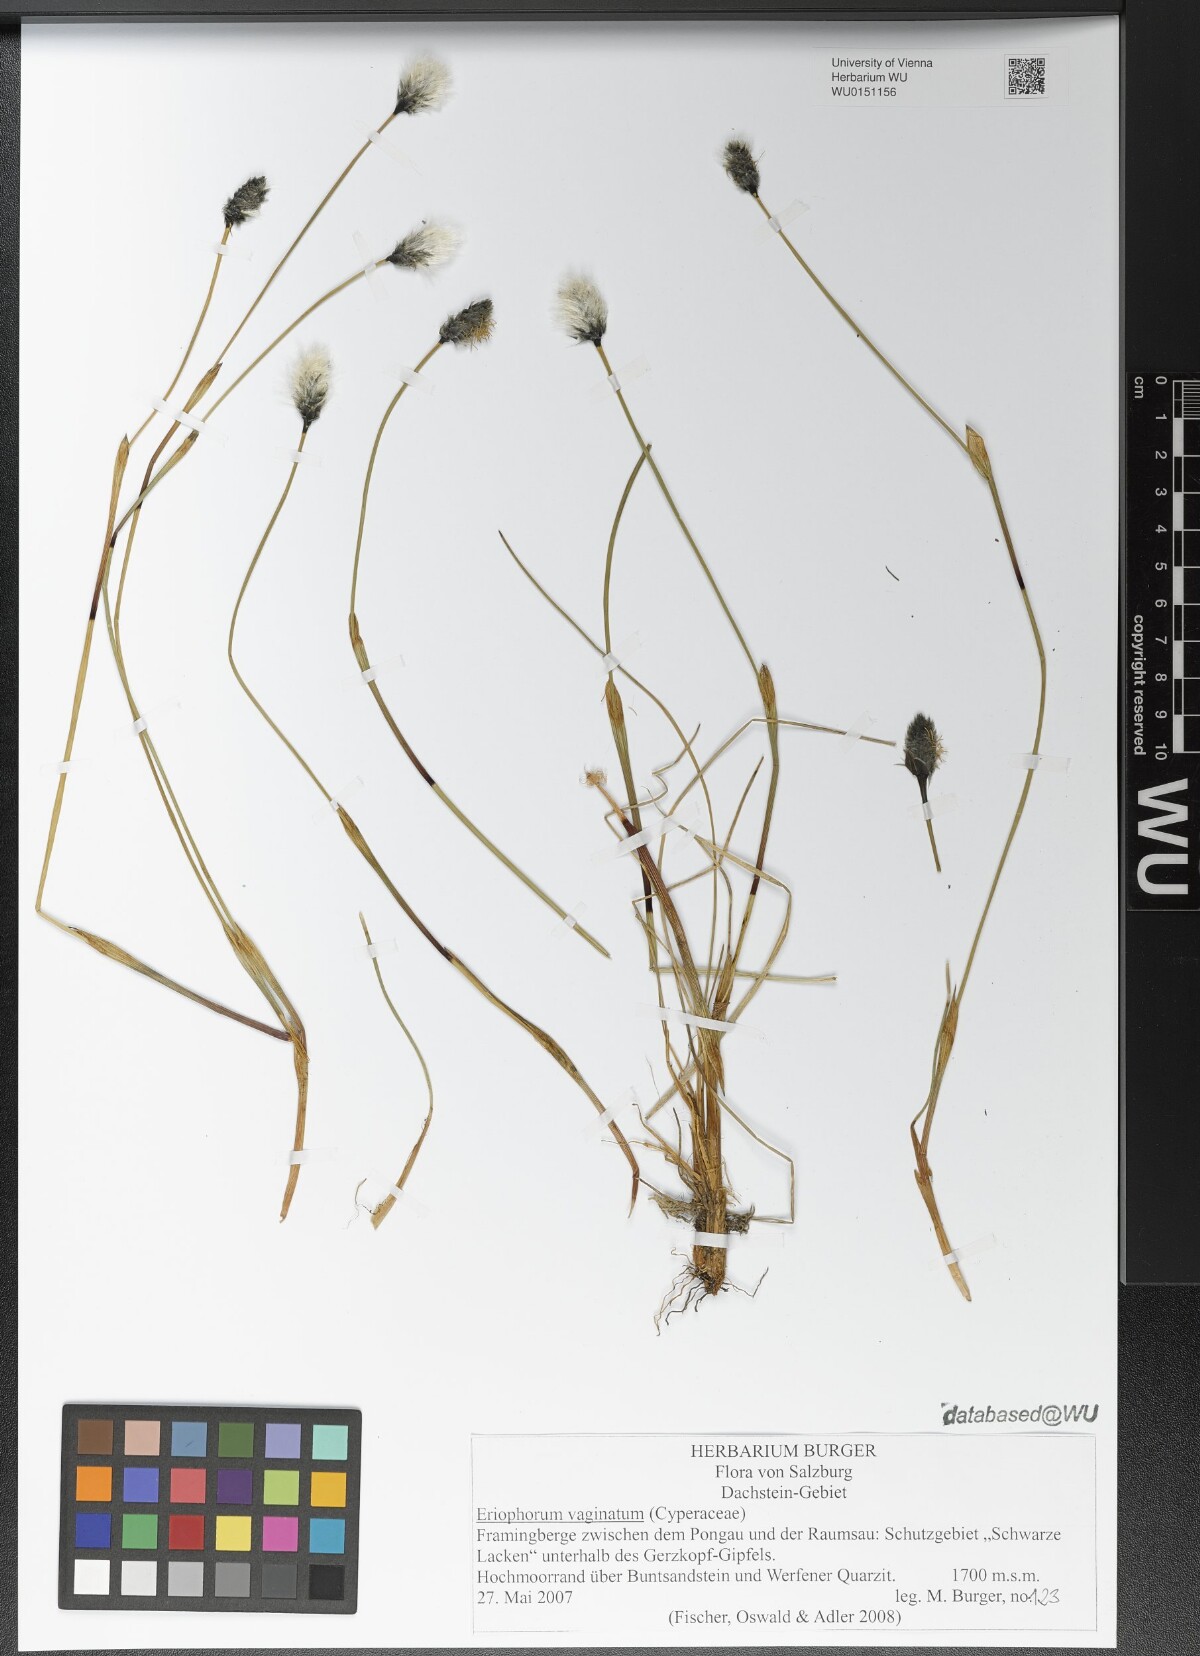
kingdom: Plantae
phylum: Tracheophyta
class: Liliopsida
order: Poales
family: Cyperaceae
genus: Eriophorum
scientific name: Eriophorum vaginatum
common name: Hare's-tail cottongrass
